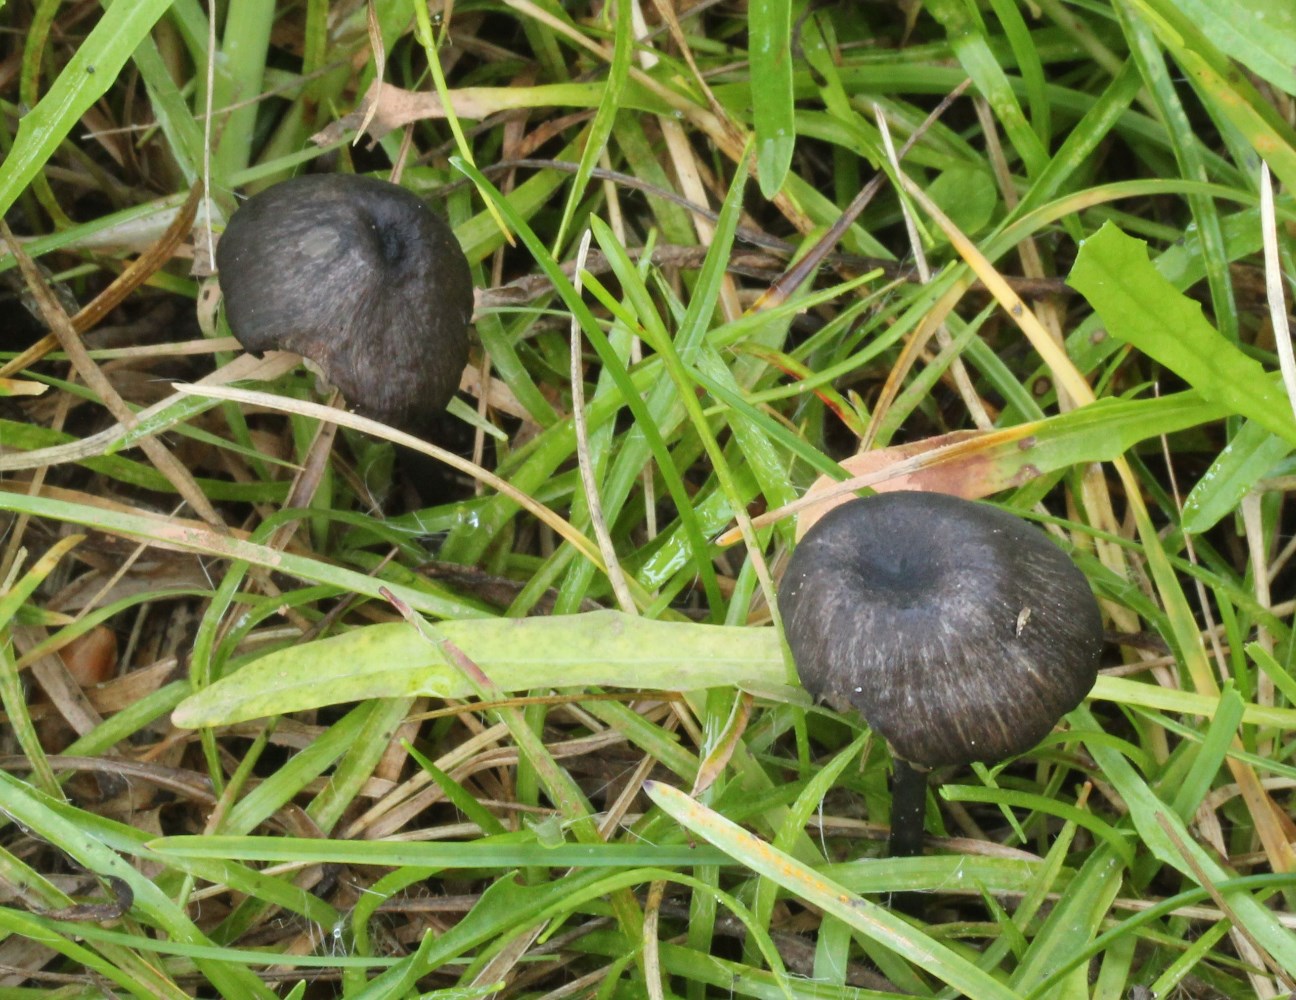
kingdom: Fungi
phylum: Basidiomycota
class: Agaricomycetes
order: Agaricales
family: Entolomataceae
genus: Entoloma
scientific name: Entoloma
